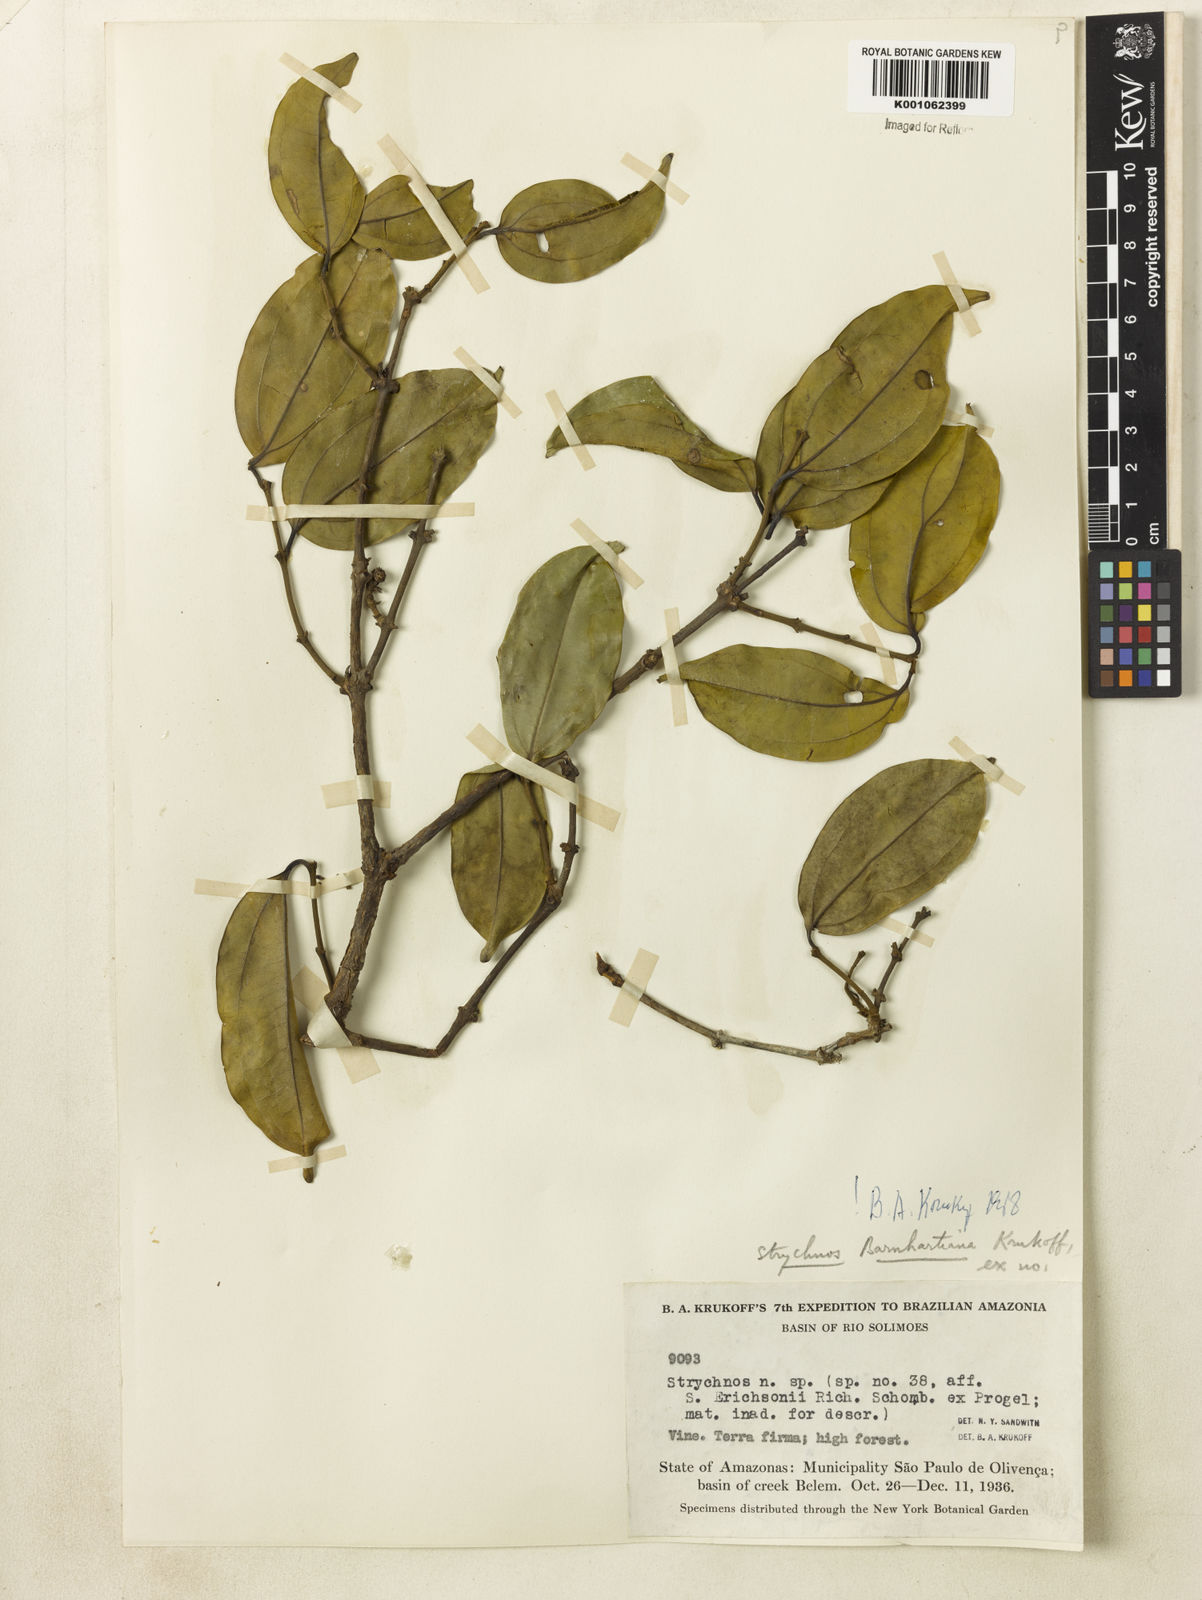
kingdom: Plantae
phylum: Tracheophyta
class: Magnoliopsida
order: Gentianales
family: Loganiaceae
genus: Strychnos
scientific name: Strychnos barnhartiana
